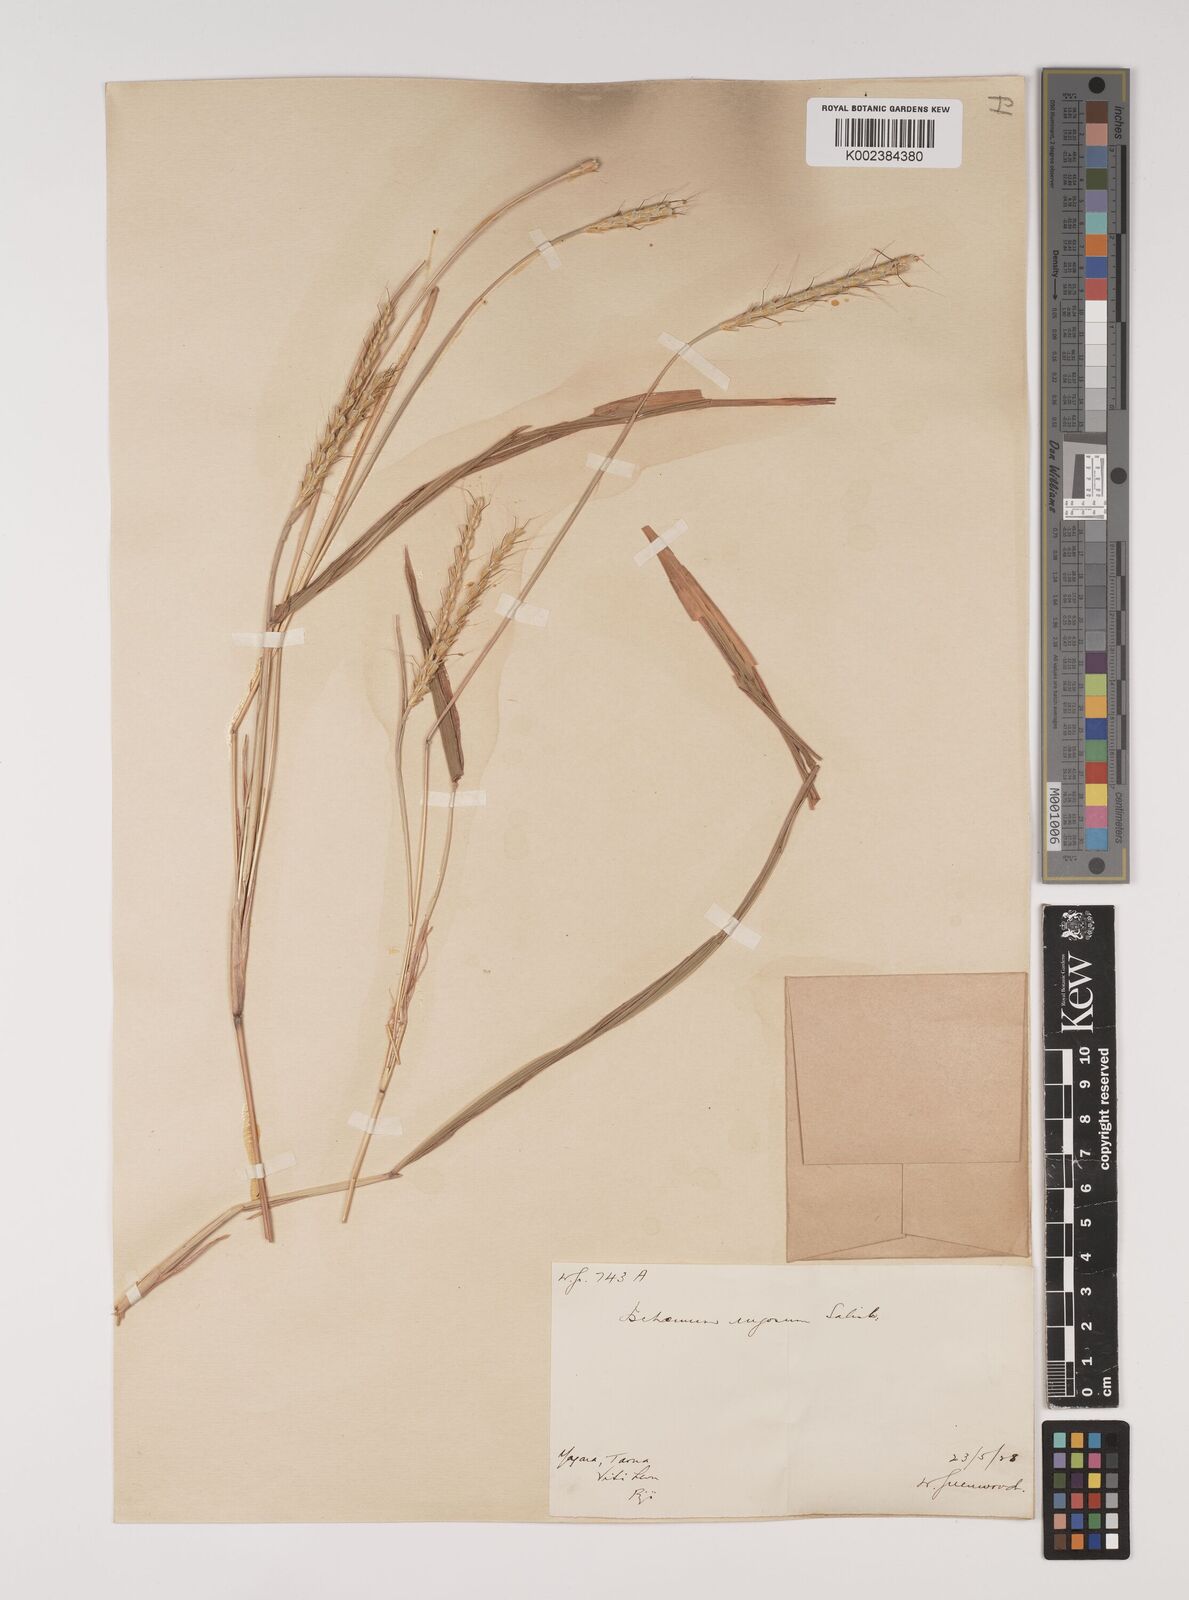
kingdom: Plantae
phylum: Tracheophyta
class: Liliopsida
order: Poales
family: Poaceae
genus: Ischaemum
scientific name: Ischaemum rugosum
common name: Saramatta grass
